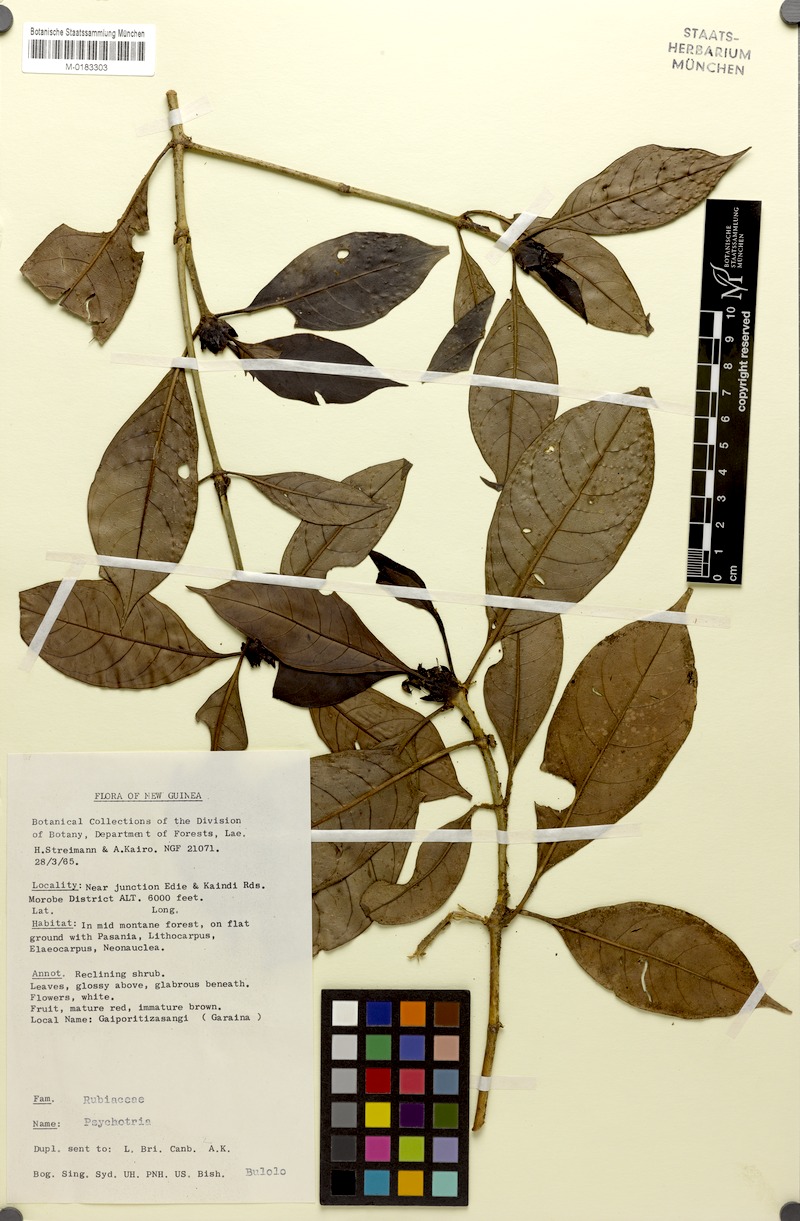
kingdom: Plantae
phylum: Tracheophyta
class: Magnoliopsida
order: Gentianales
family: Rubiaceae
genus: Psychotria
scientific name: Psychotria morobensis
